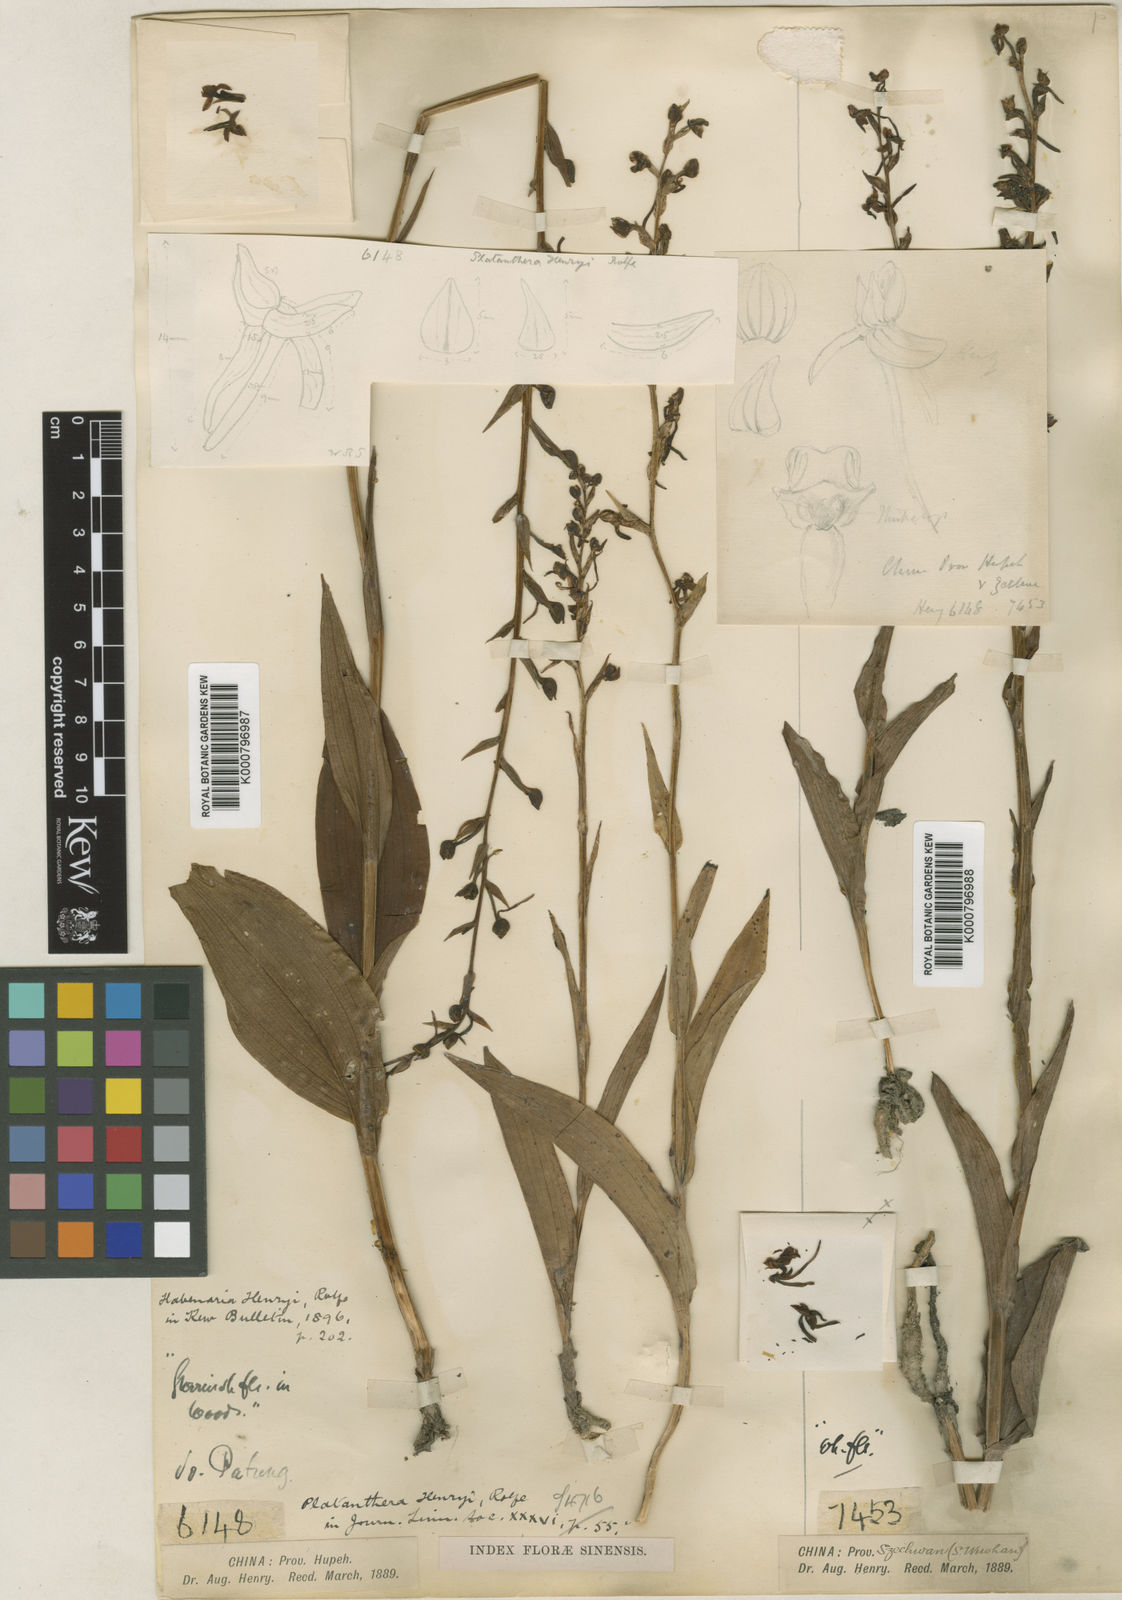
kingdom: Plantae
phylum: Tracheophyta
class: Liliopsida
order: Asparagales
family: Orchidaceae
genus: Platanthera
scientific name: Platanthera
